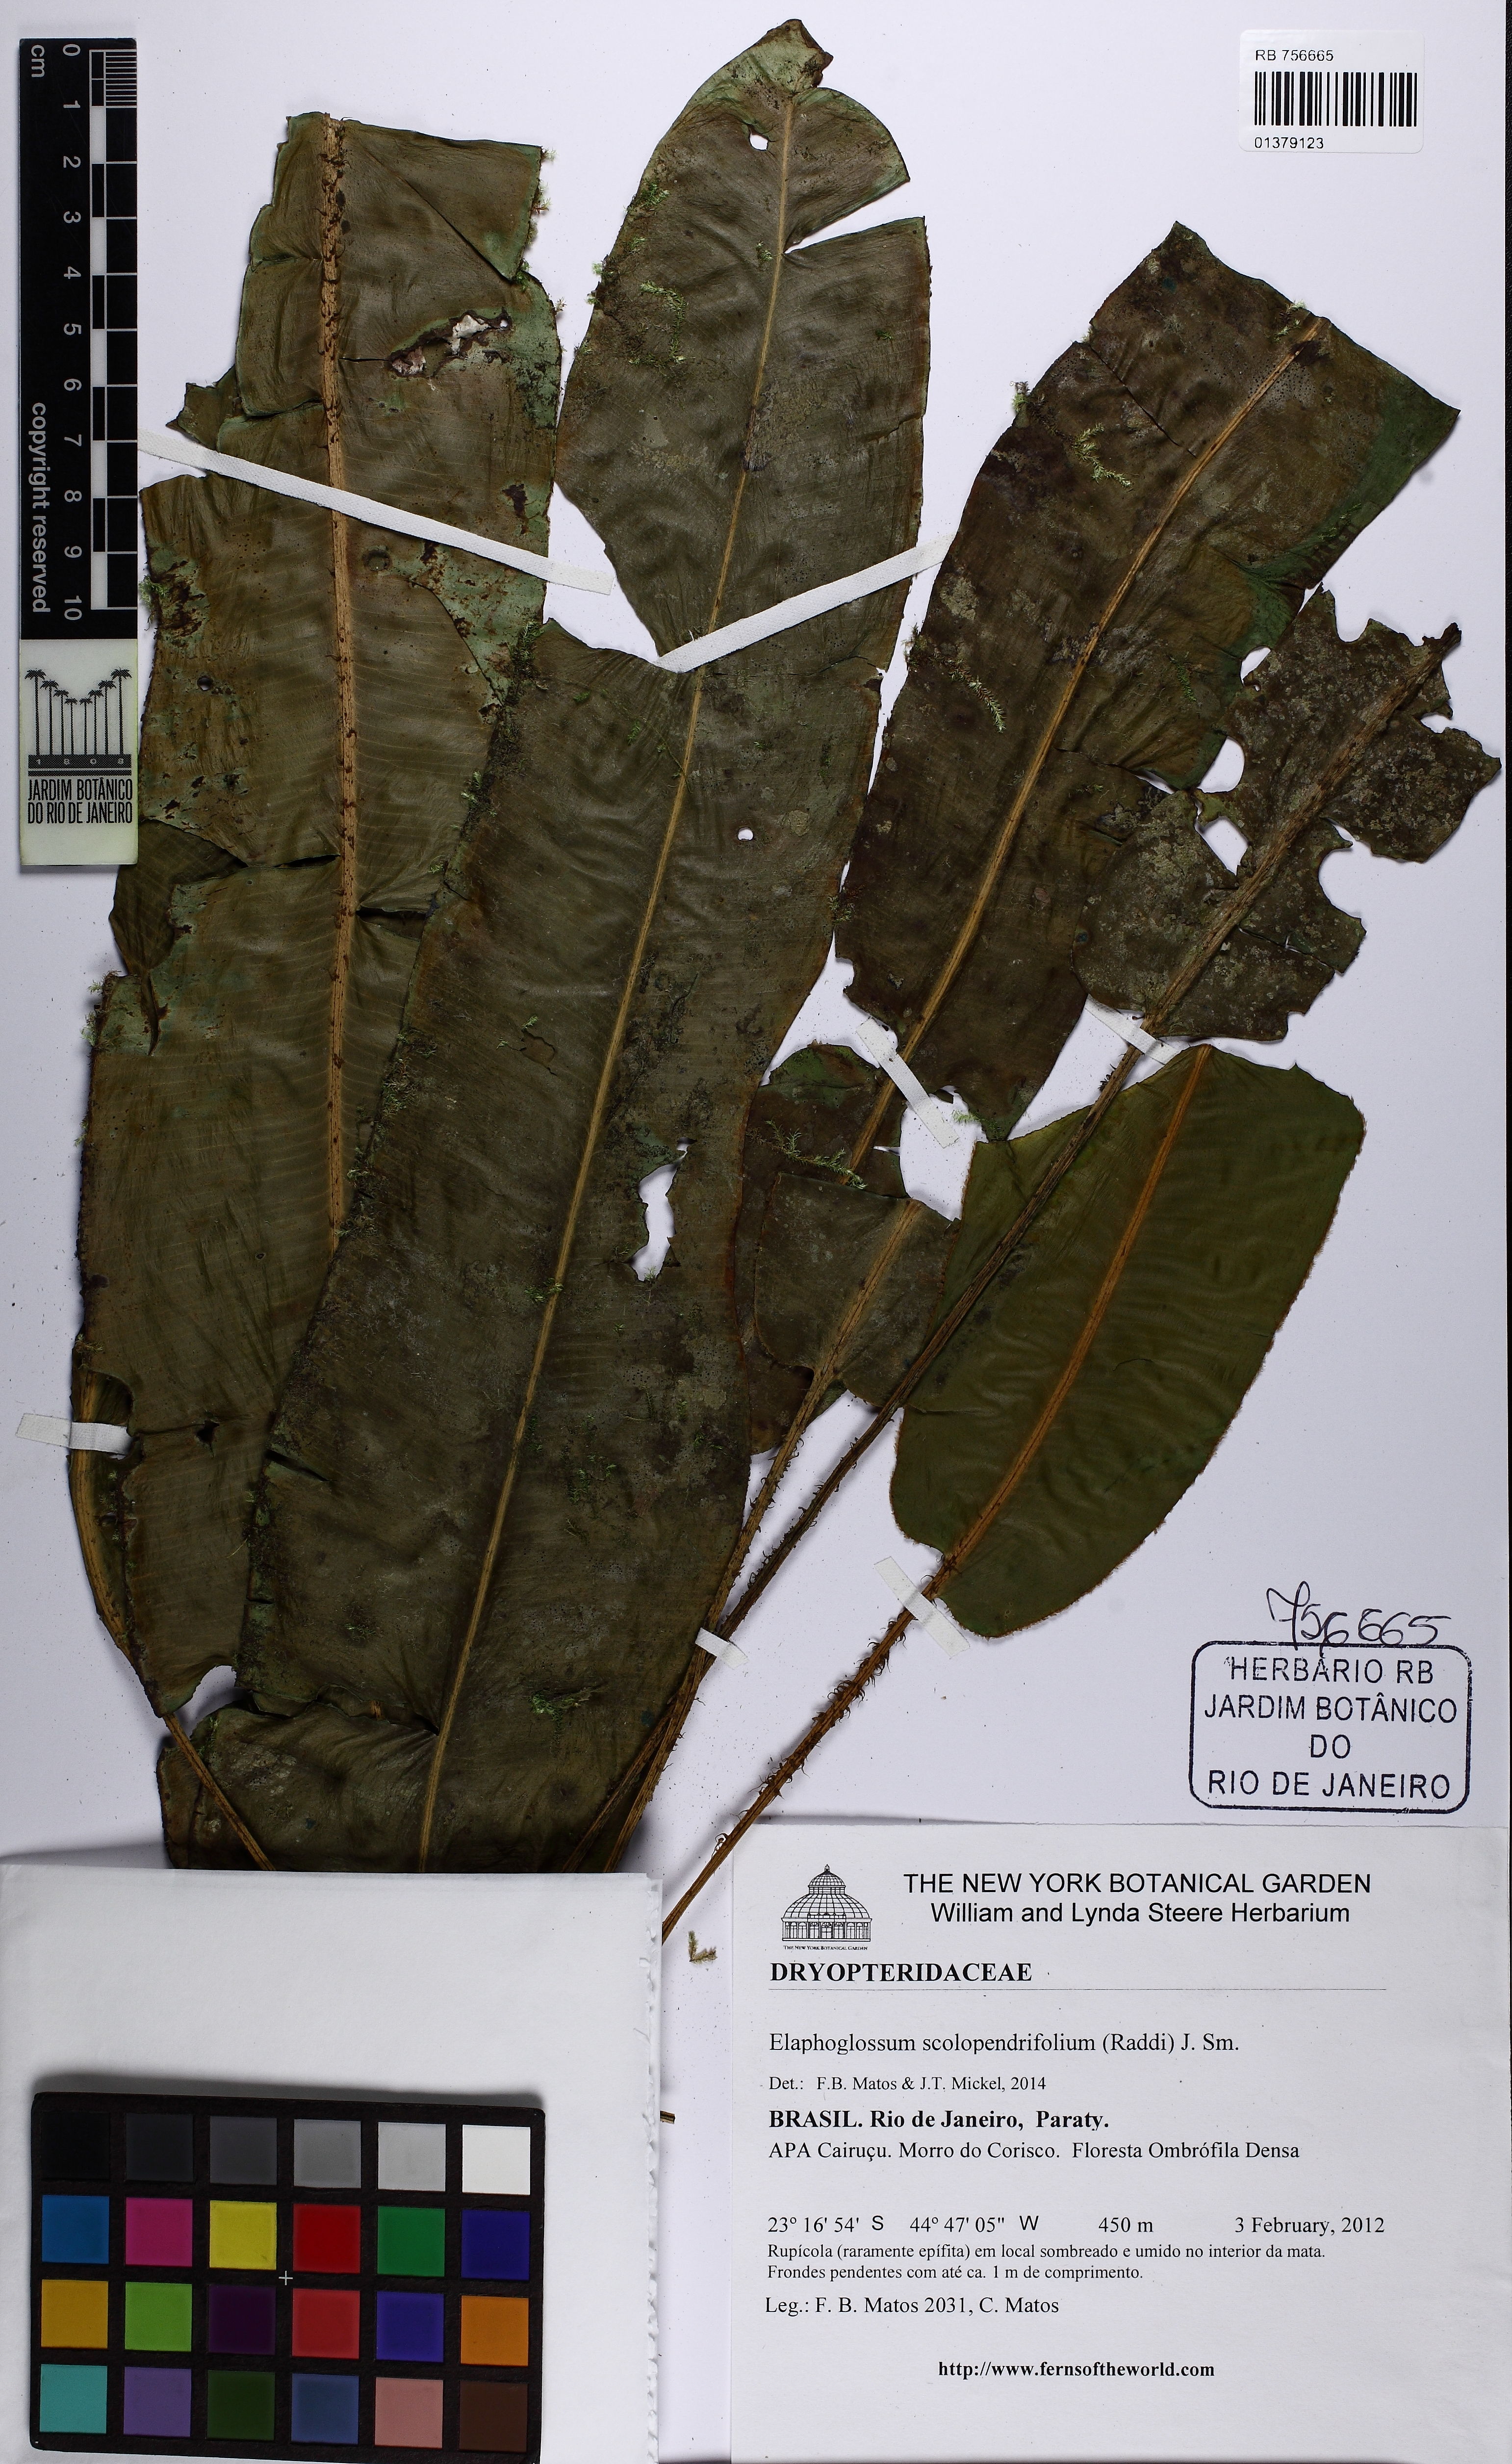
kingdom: Plantae
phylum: Tracheophyta
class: Polypodiopsida
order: Polypodiales
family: Dryopteridaceae
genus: Elaphoglossum
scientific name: Elaphoglossum scolopendrifolium
